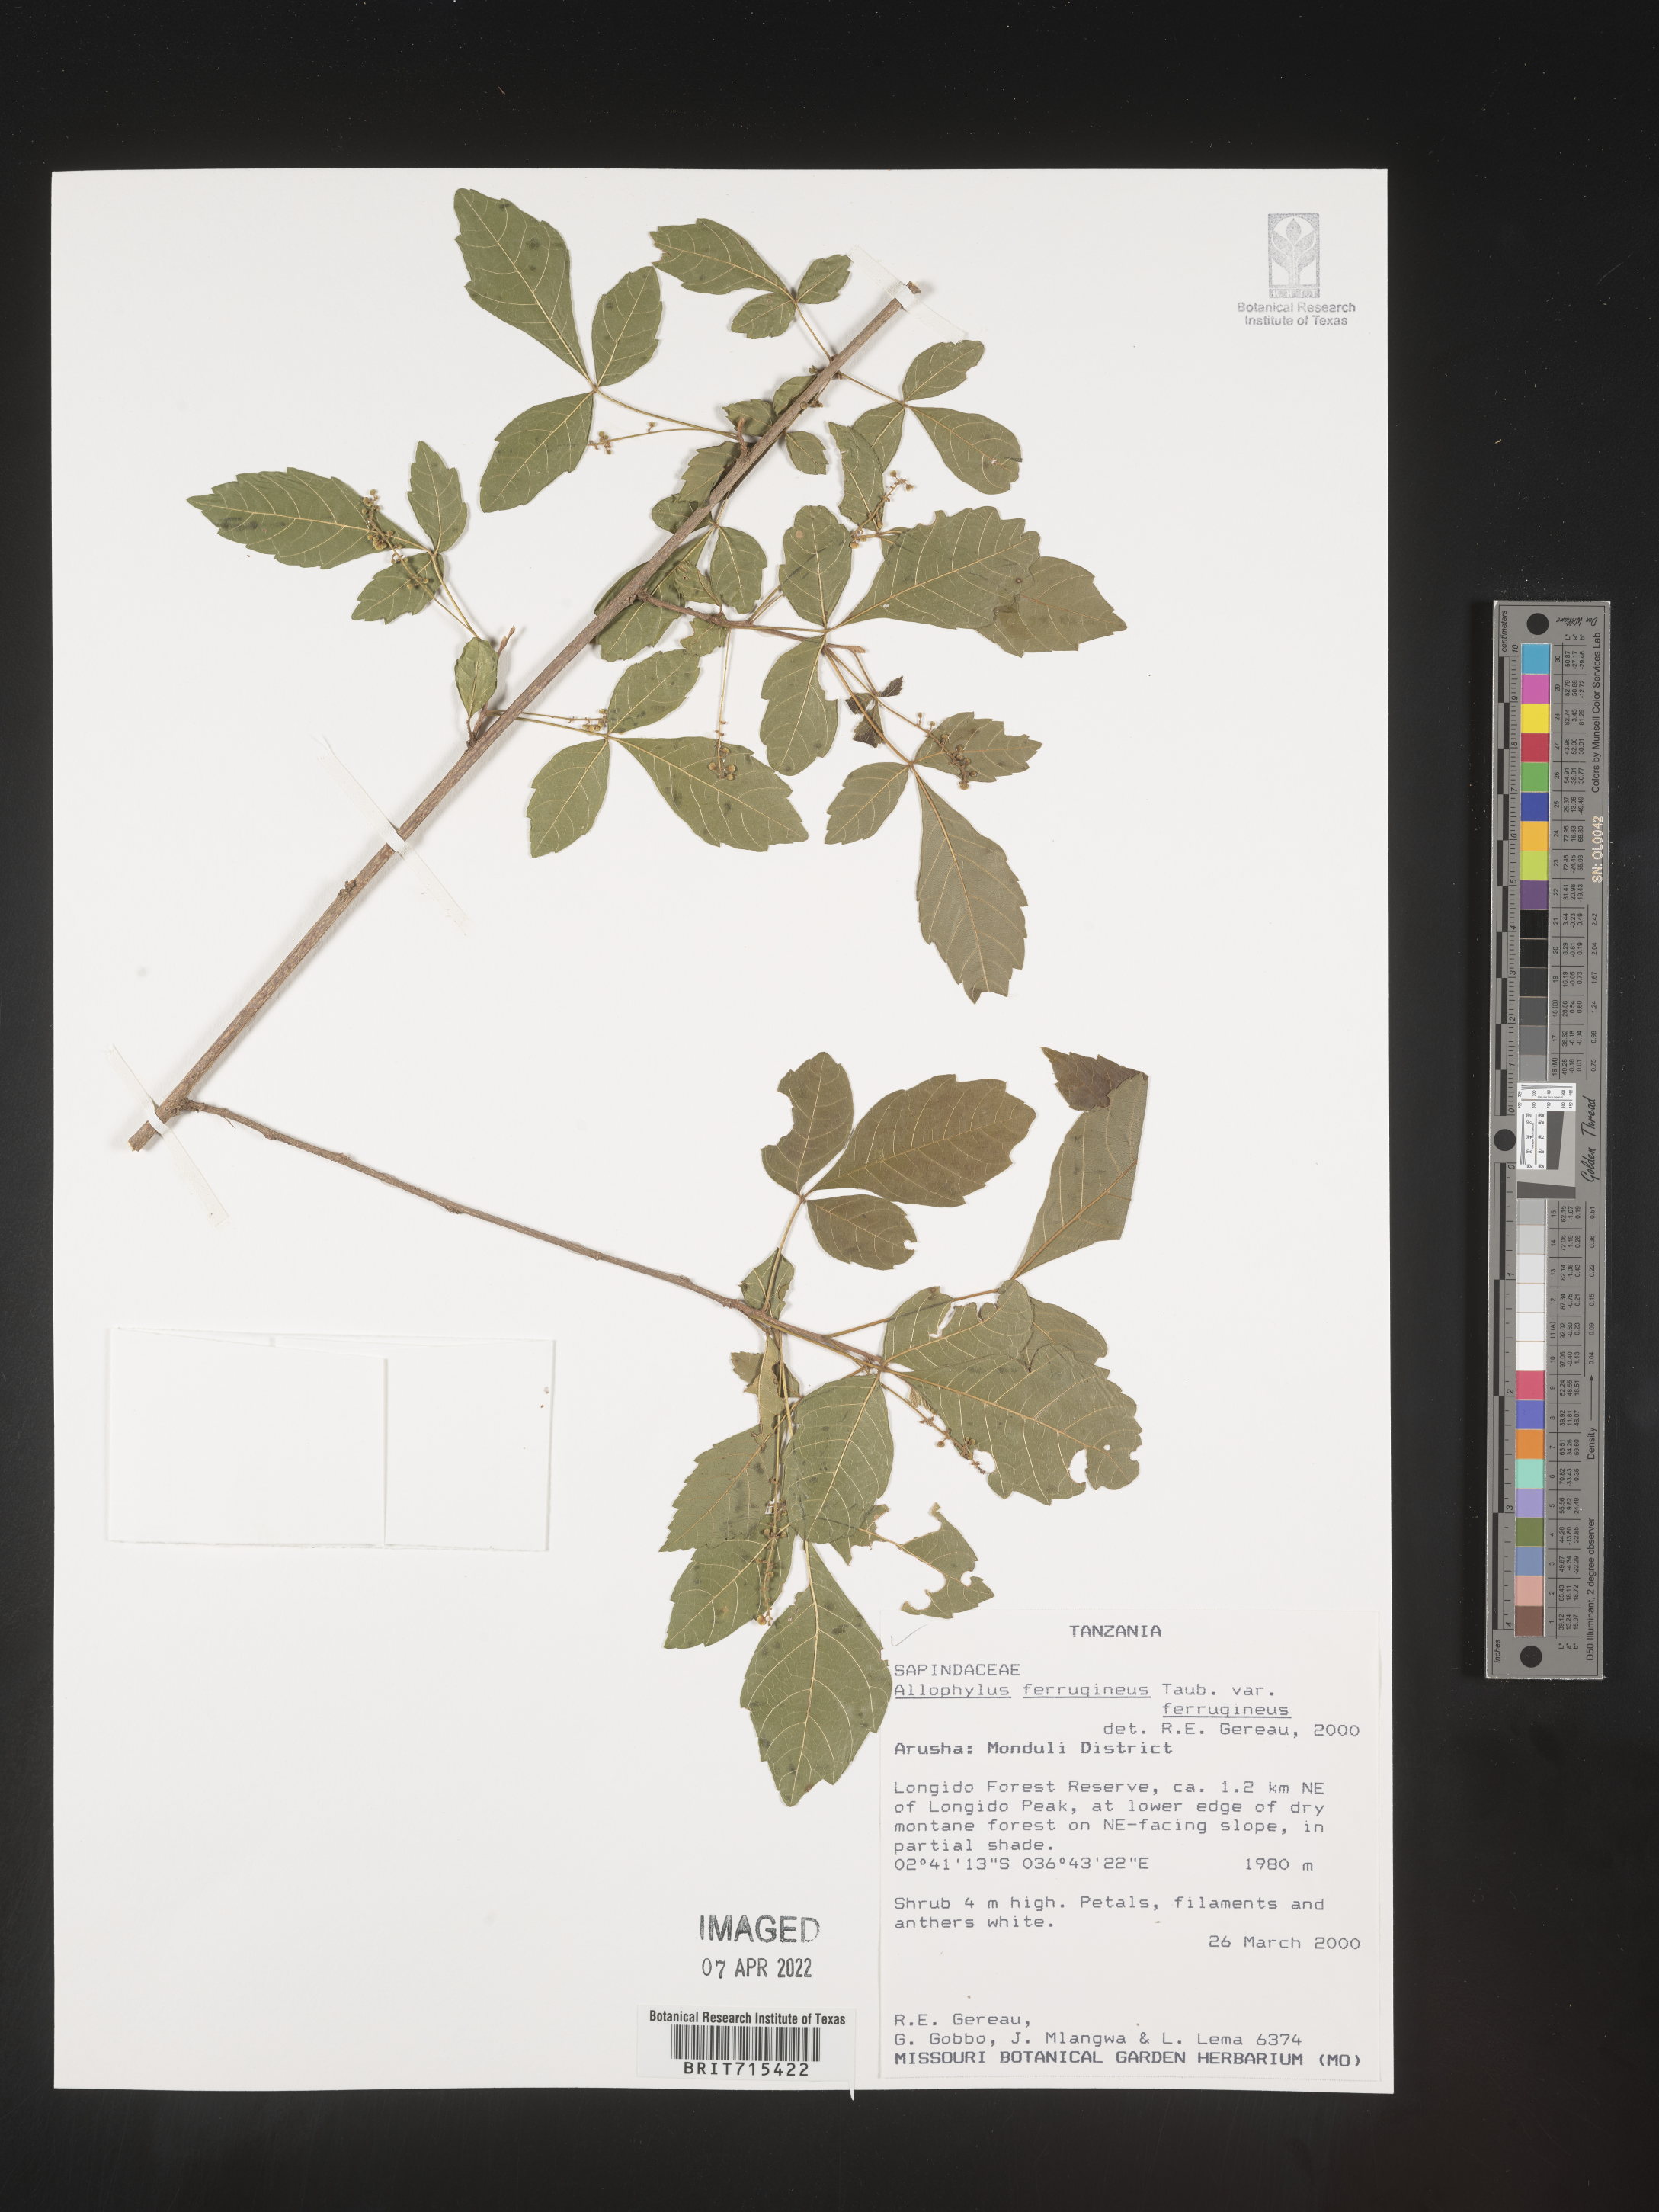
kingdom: Plantae
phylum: Tracheophyta
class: Magnoliopsida
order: Sapindales
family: Sapindaceae
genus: Allophylus
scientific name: Allophylus ferrugineus
